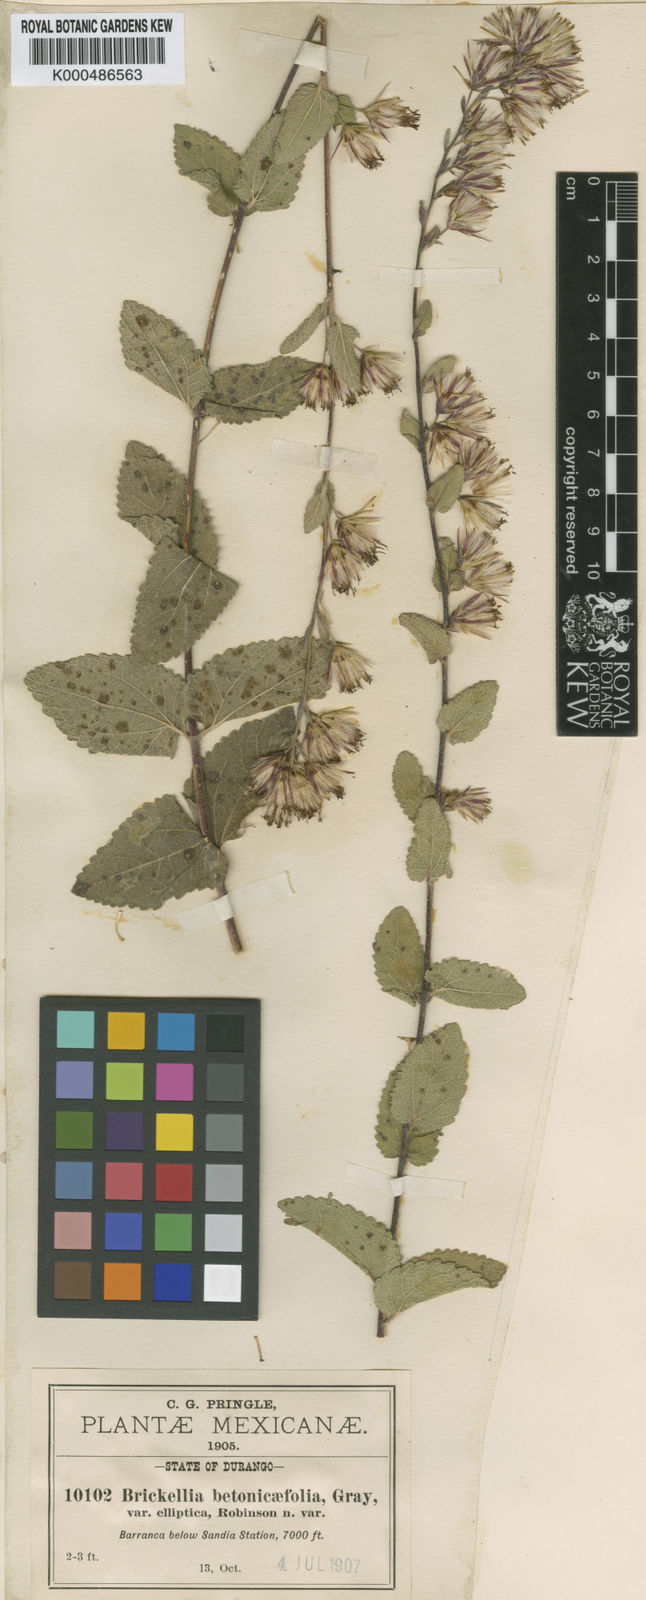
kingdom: Plantae
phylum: Tracheophyta
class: Magnoliopsida
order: Asterales
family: Asteraceae
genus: Brickellia
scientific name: Brickellia betonicifolia
